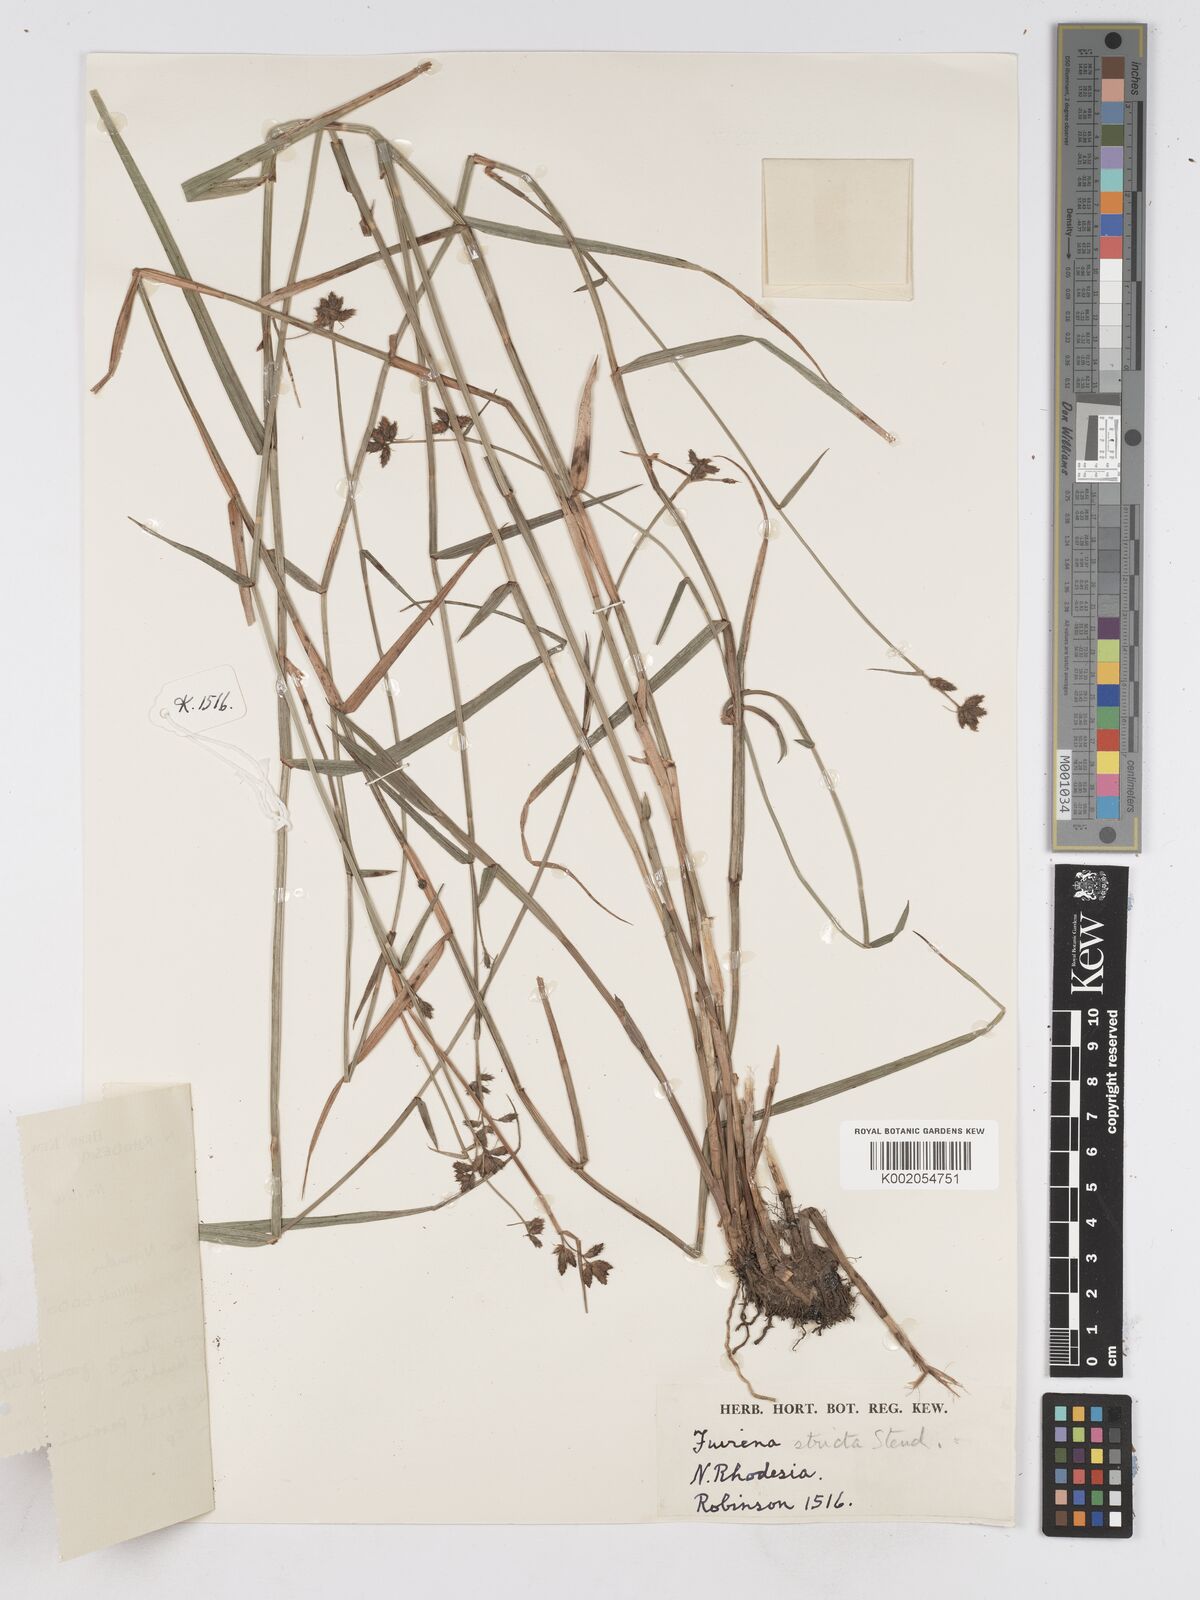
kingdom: Plantae
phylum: Tracheophyta
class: Liliopsida
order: Poales
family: Cyperaceae
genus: Fuirena
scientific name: Fuirena stricta
